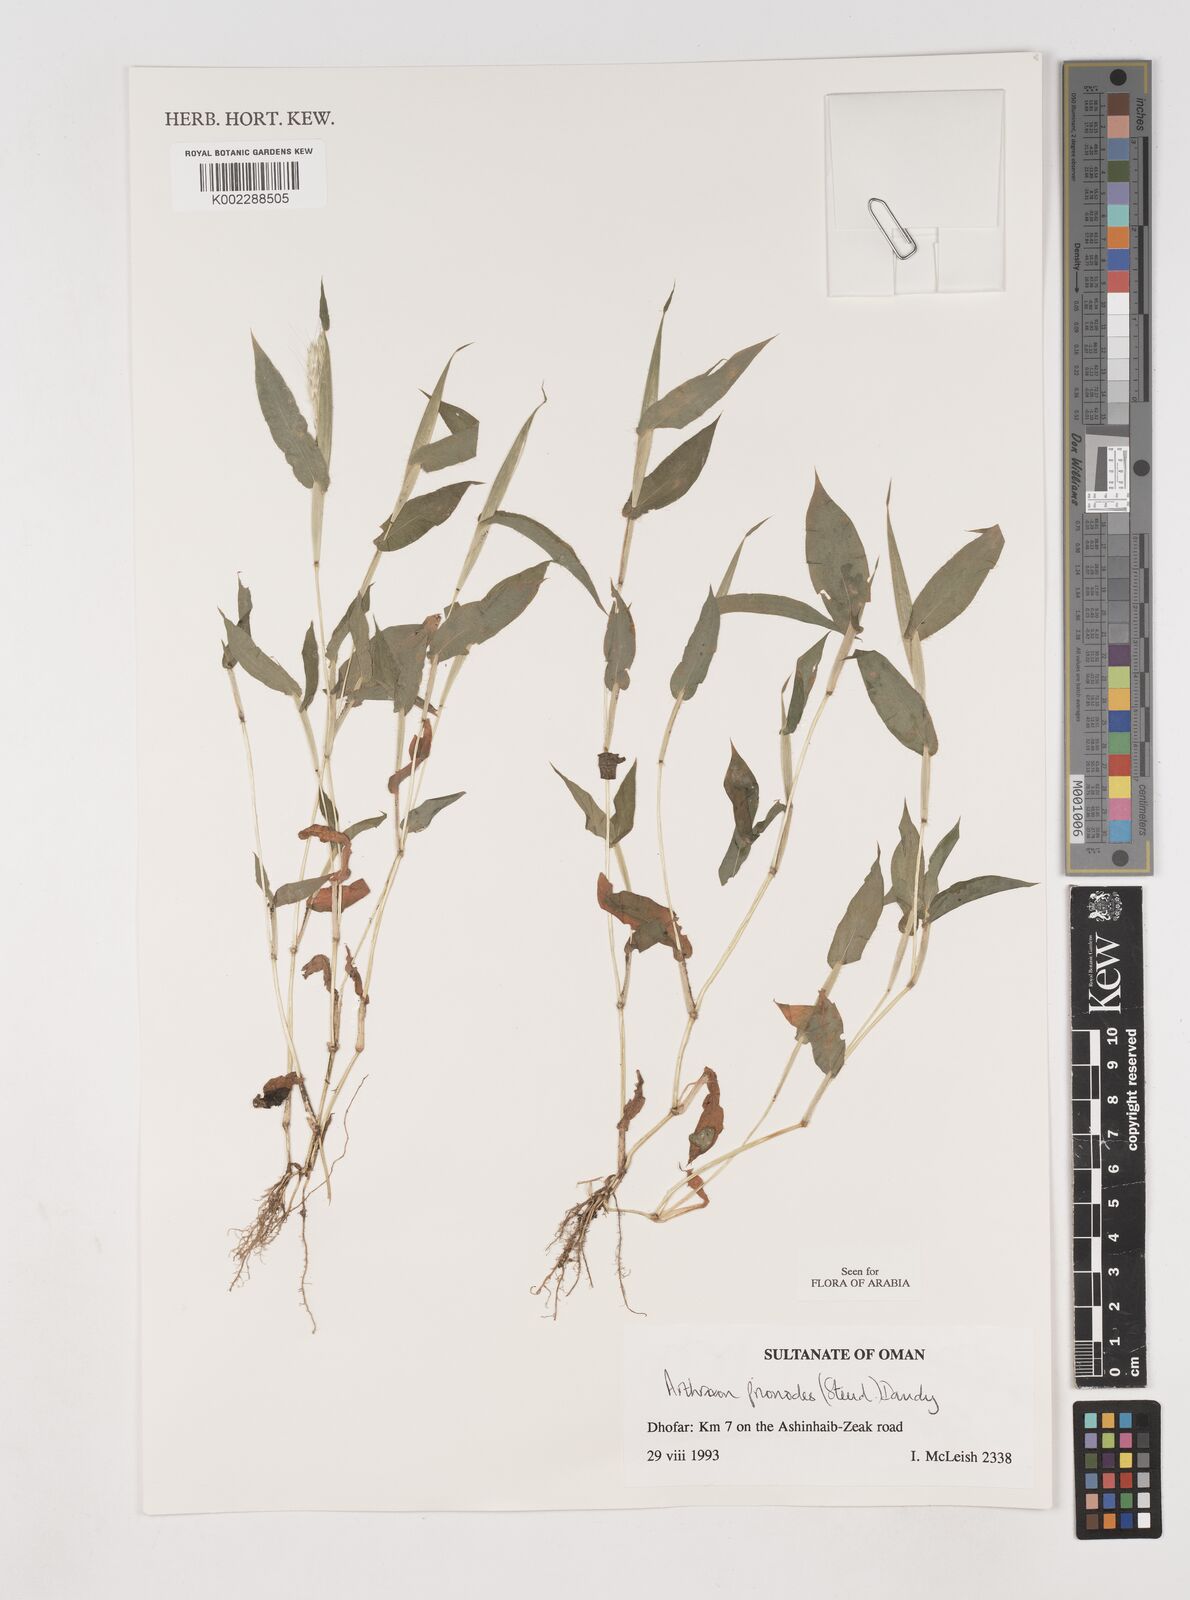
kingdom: Plantae
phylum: Tracheophyta
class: Liliopsida
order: Poales
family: Poaceae
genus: Arthraxon
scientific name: Arthraxon prionodes
